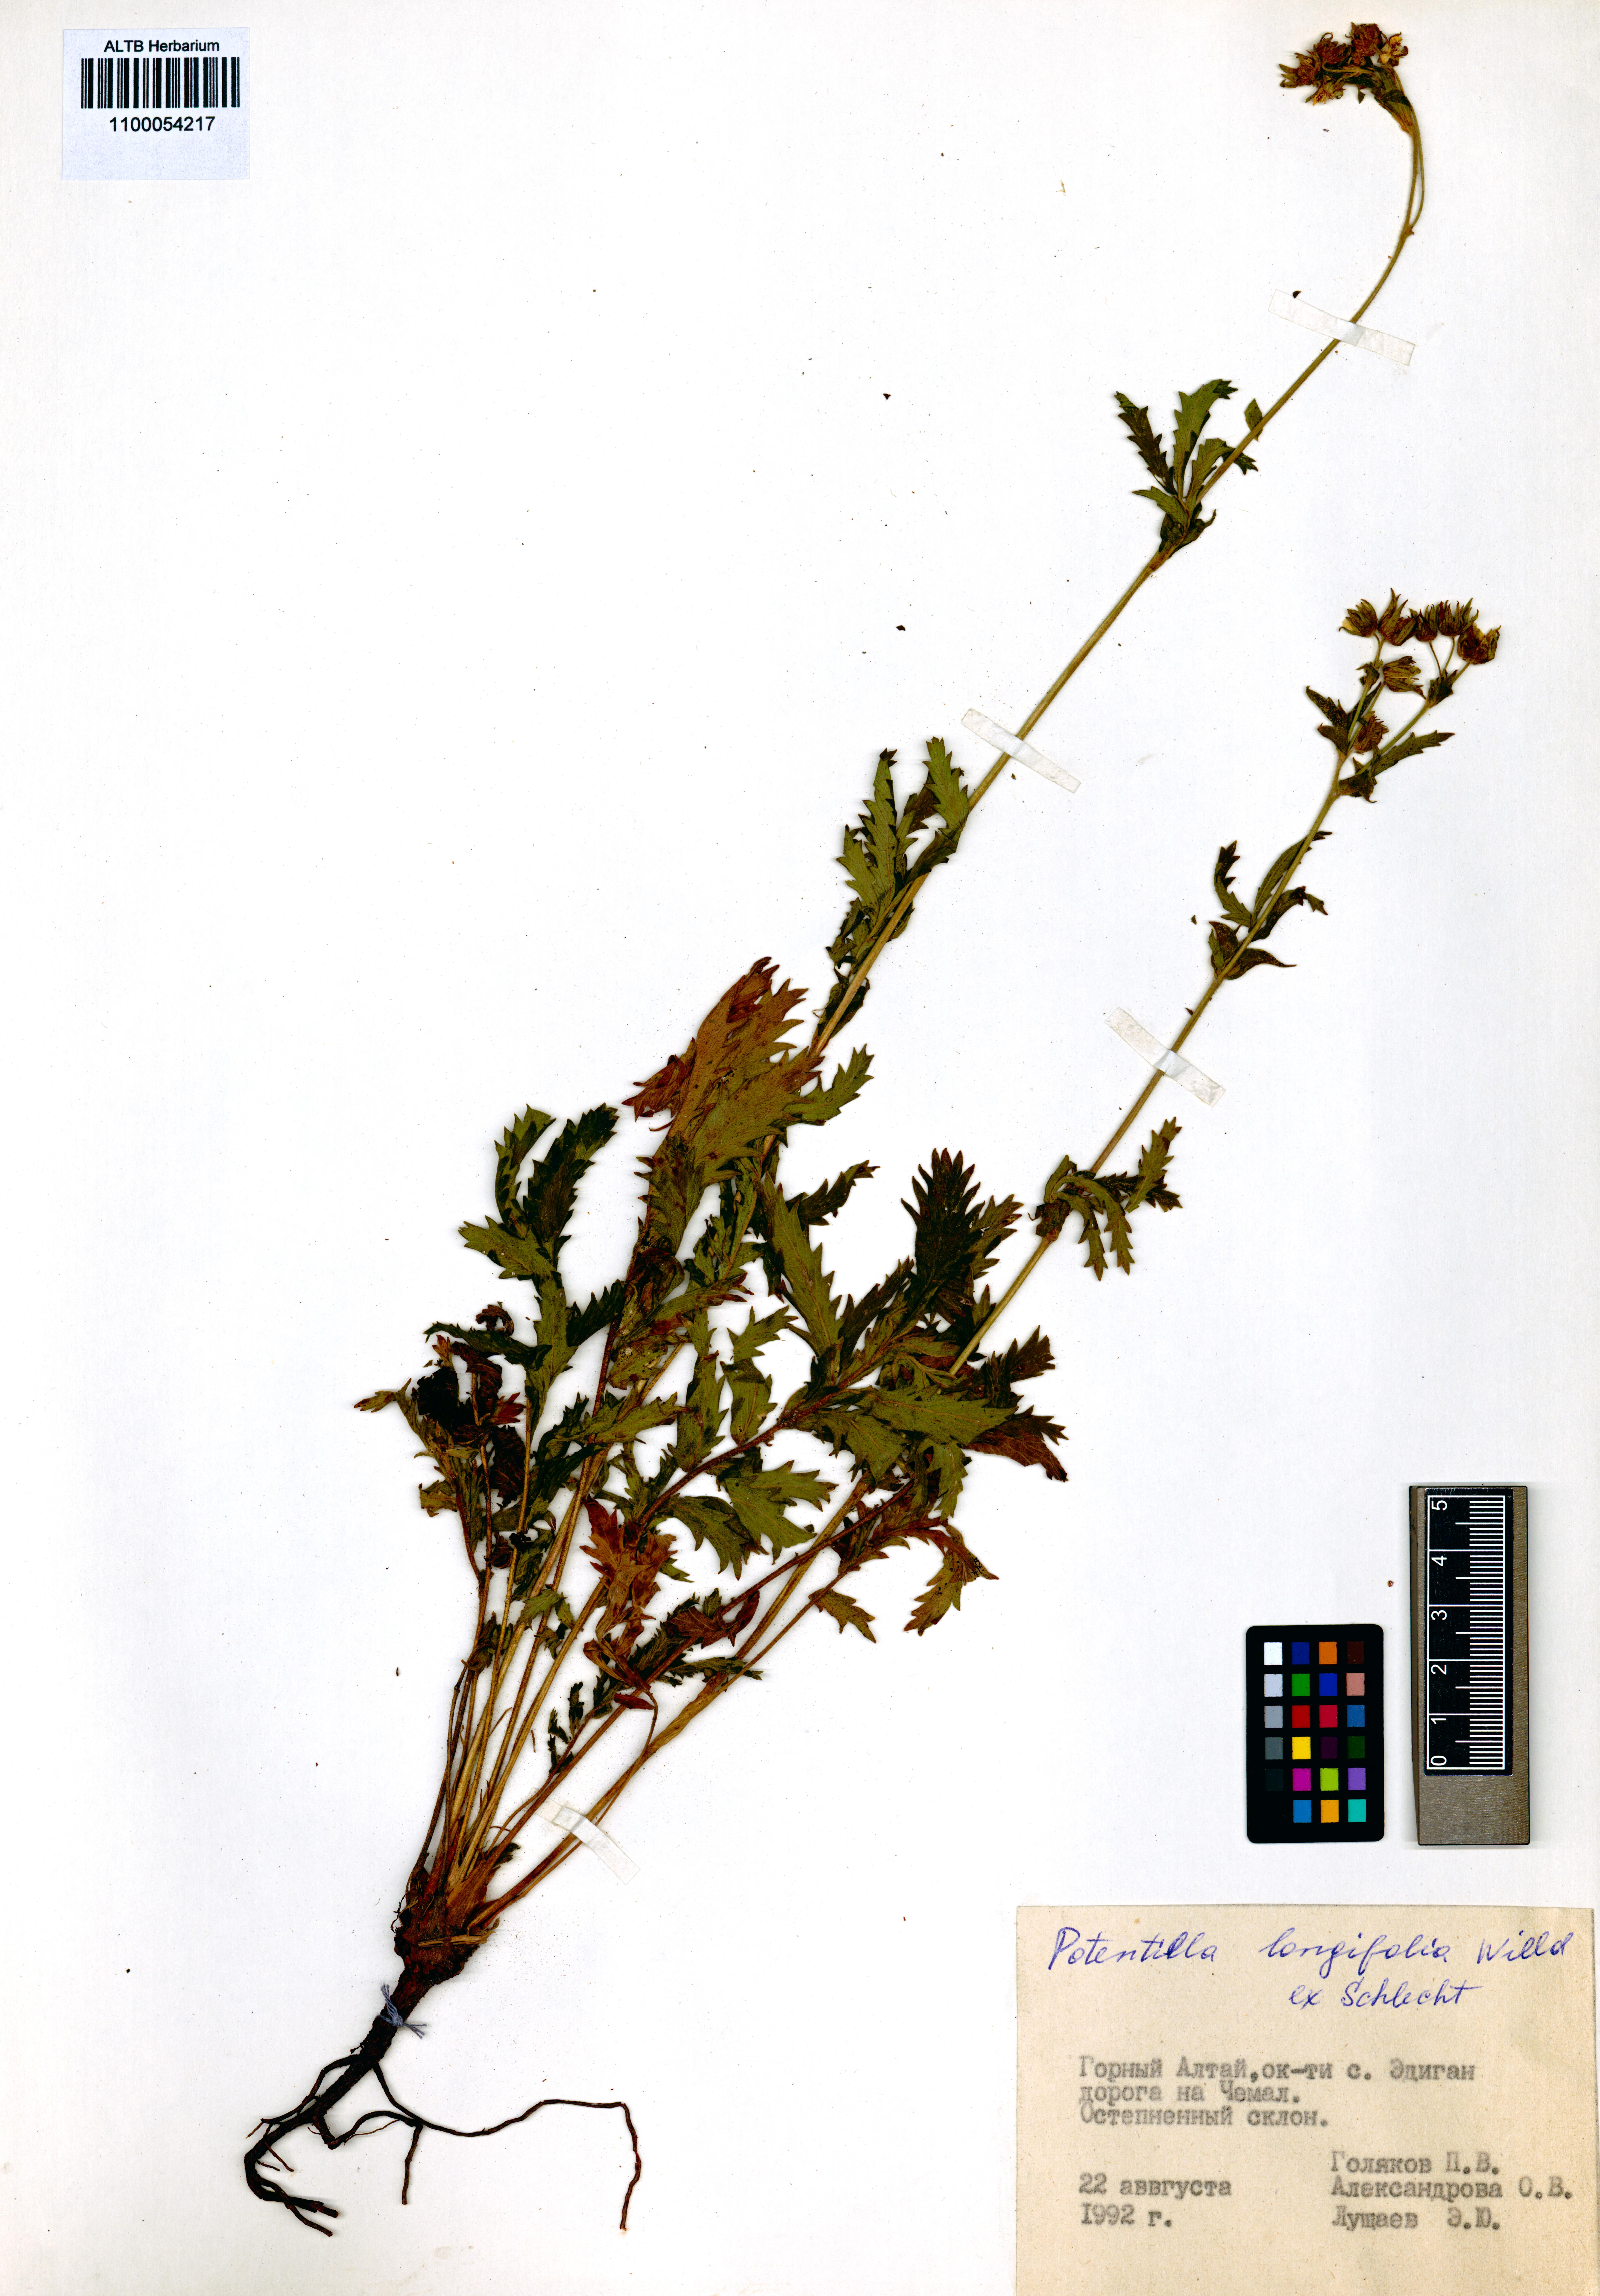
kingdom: Plantae
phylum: Tracheophyta
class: Magnoliopsida
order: Rosales
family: Rosaceae
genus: Potentilla
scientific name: Potentilla longifolia
